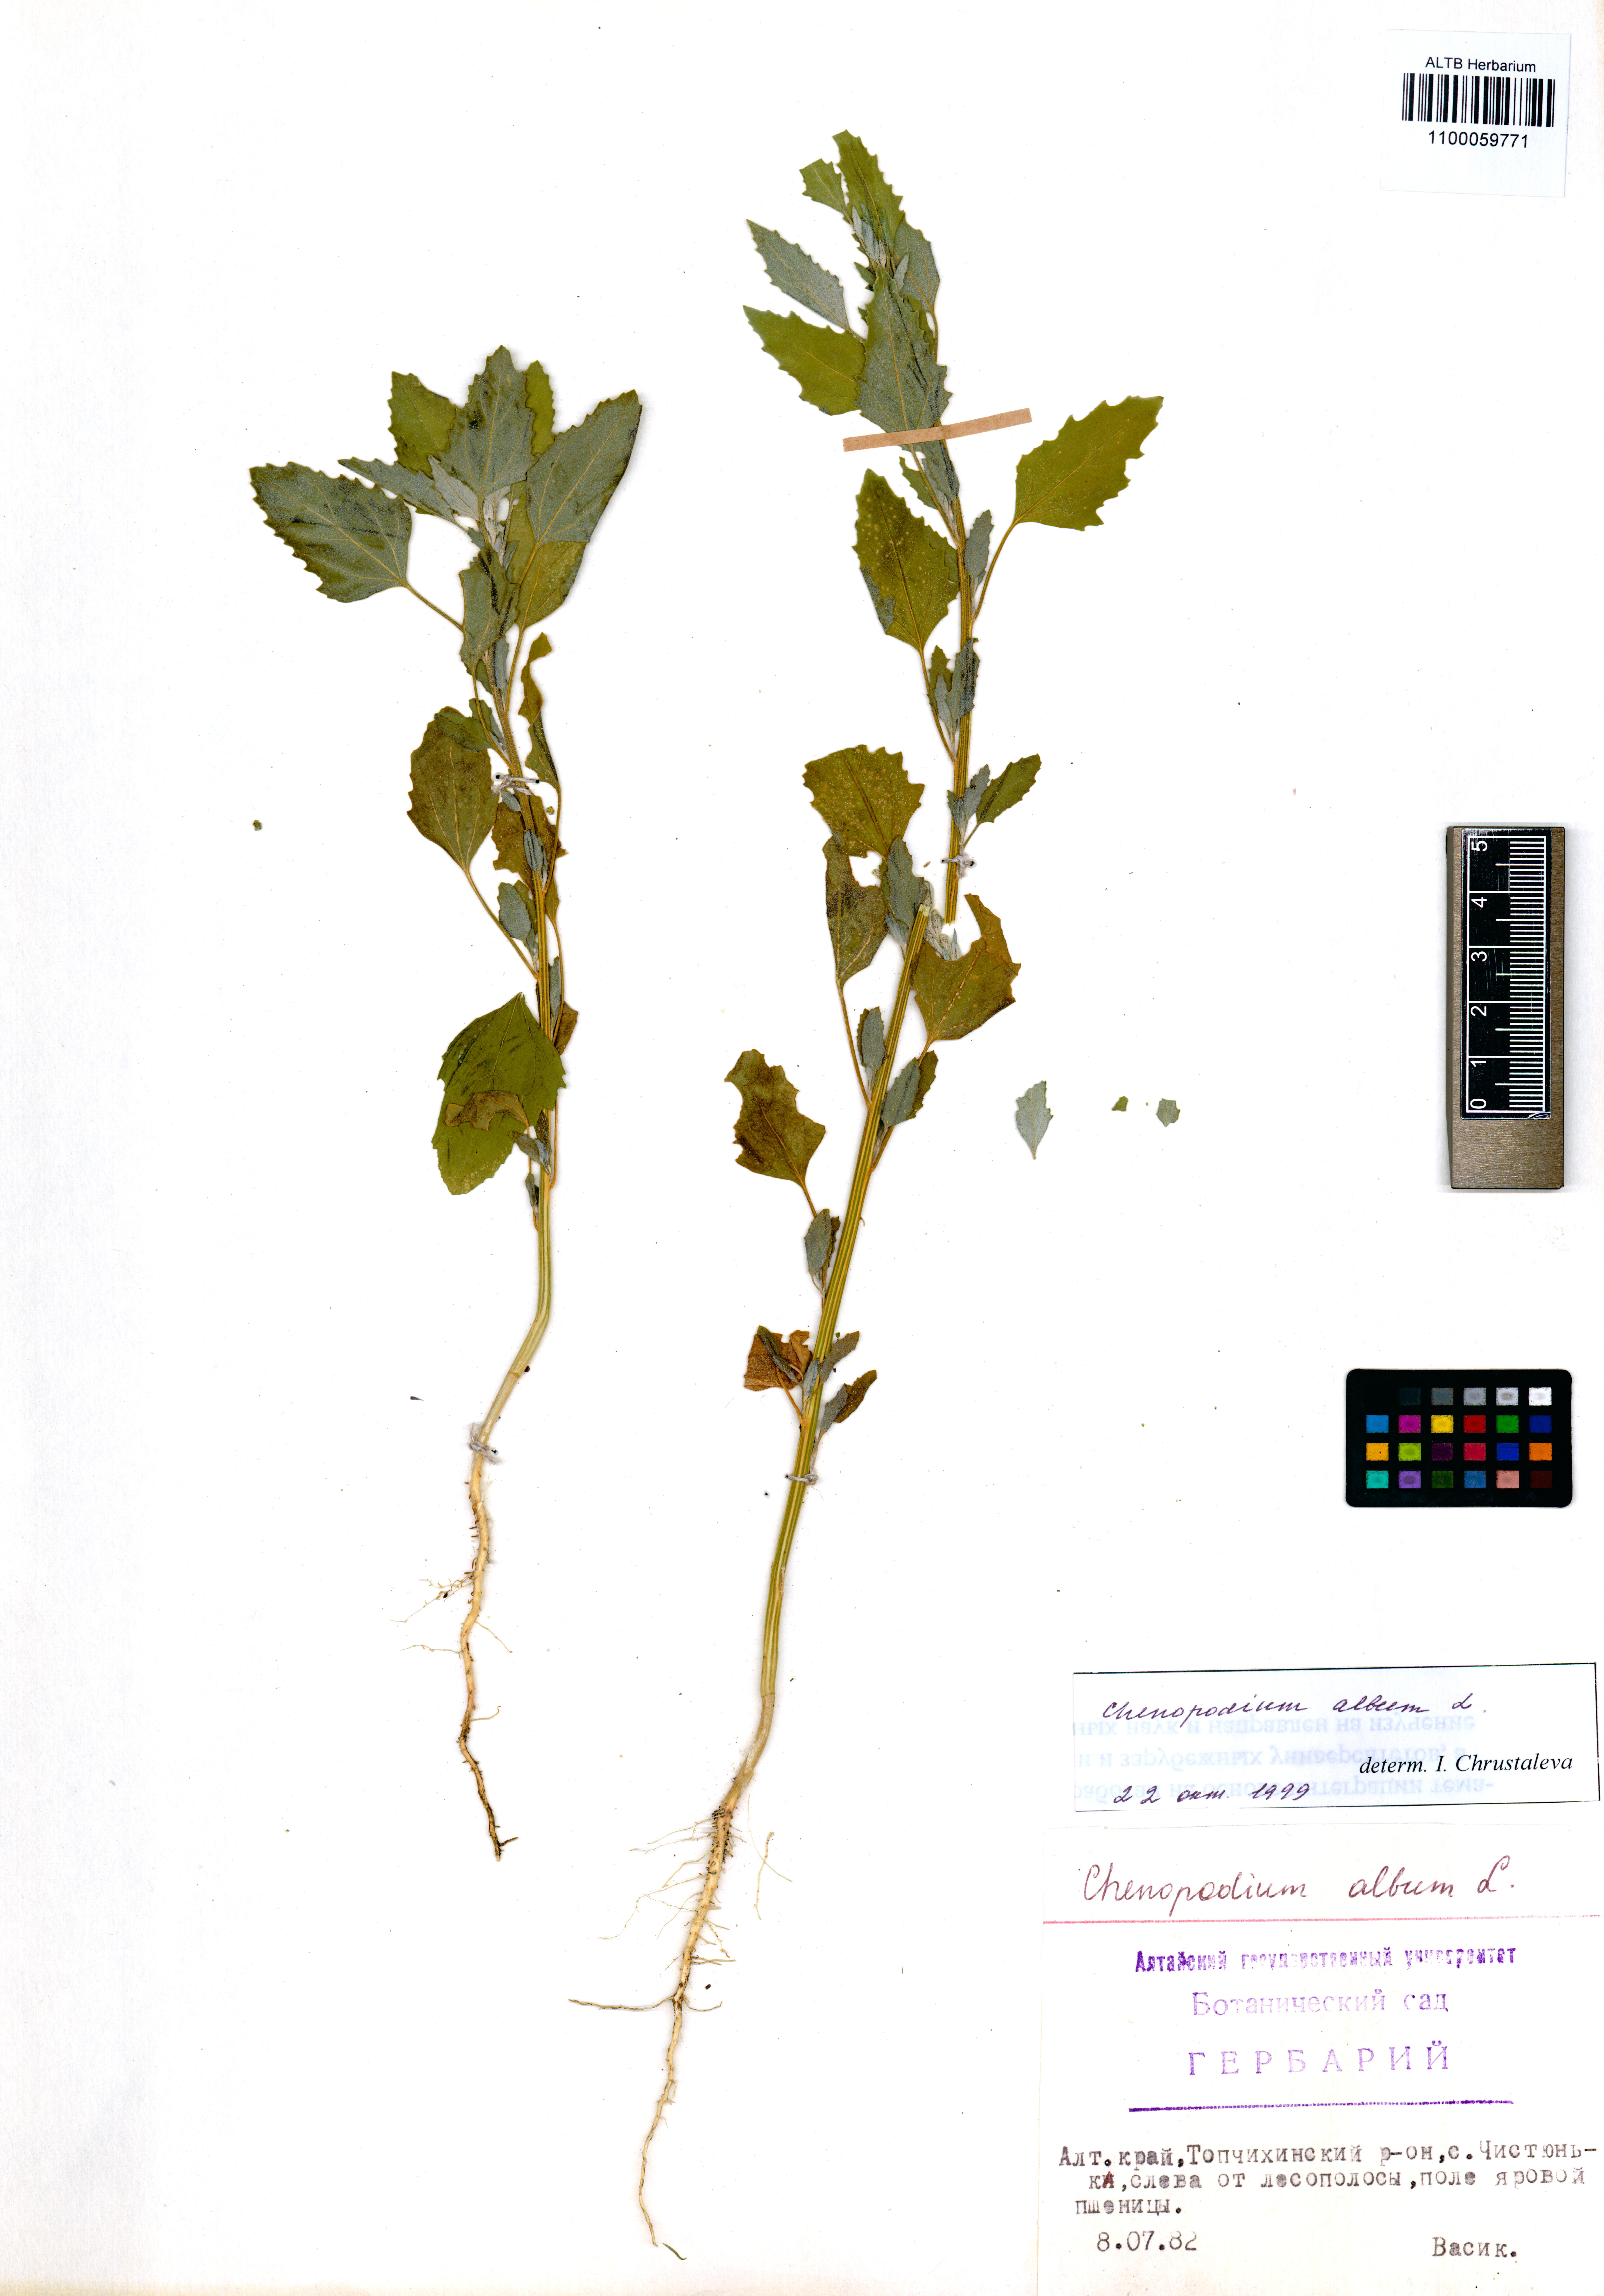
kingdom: Plantae
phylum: Tracheophyta
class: Magnoliopsida
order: Caryophyllales
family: Amaranthaceae
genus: Chenopodium
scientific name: Chenopodium album
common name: Fat-hen
